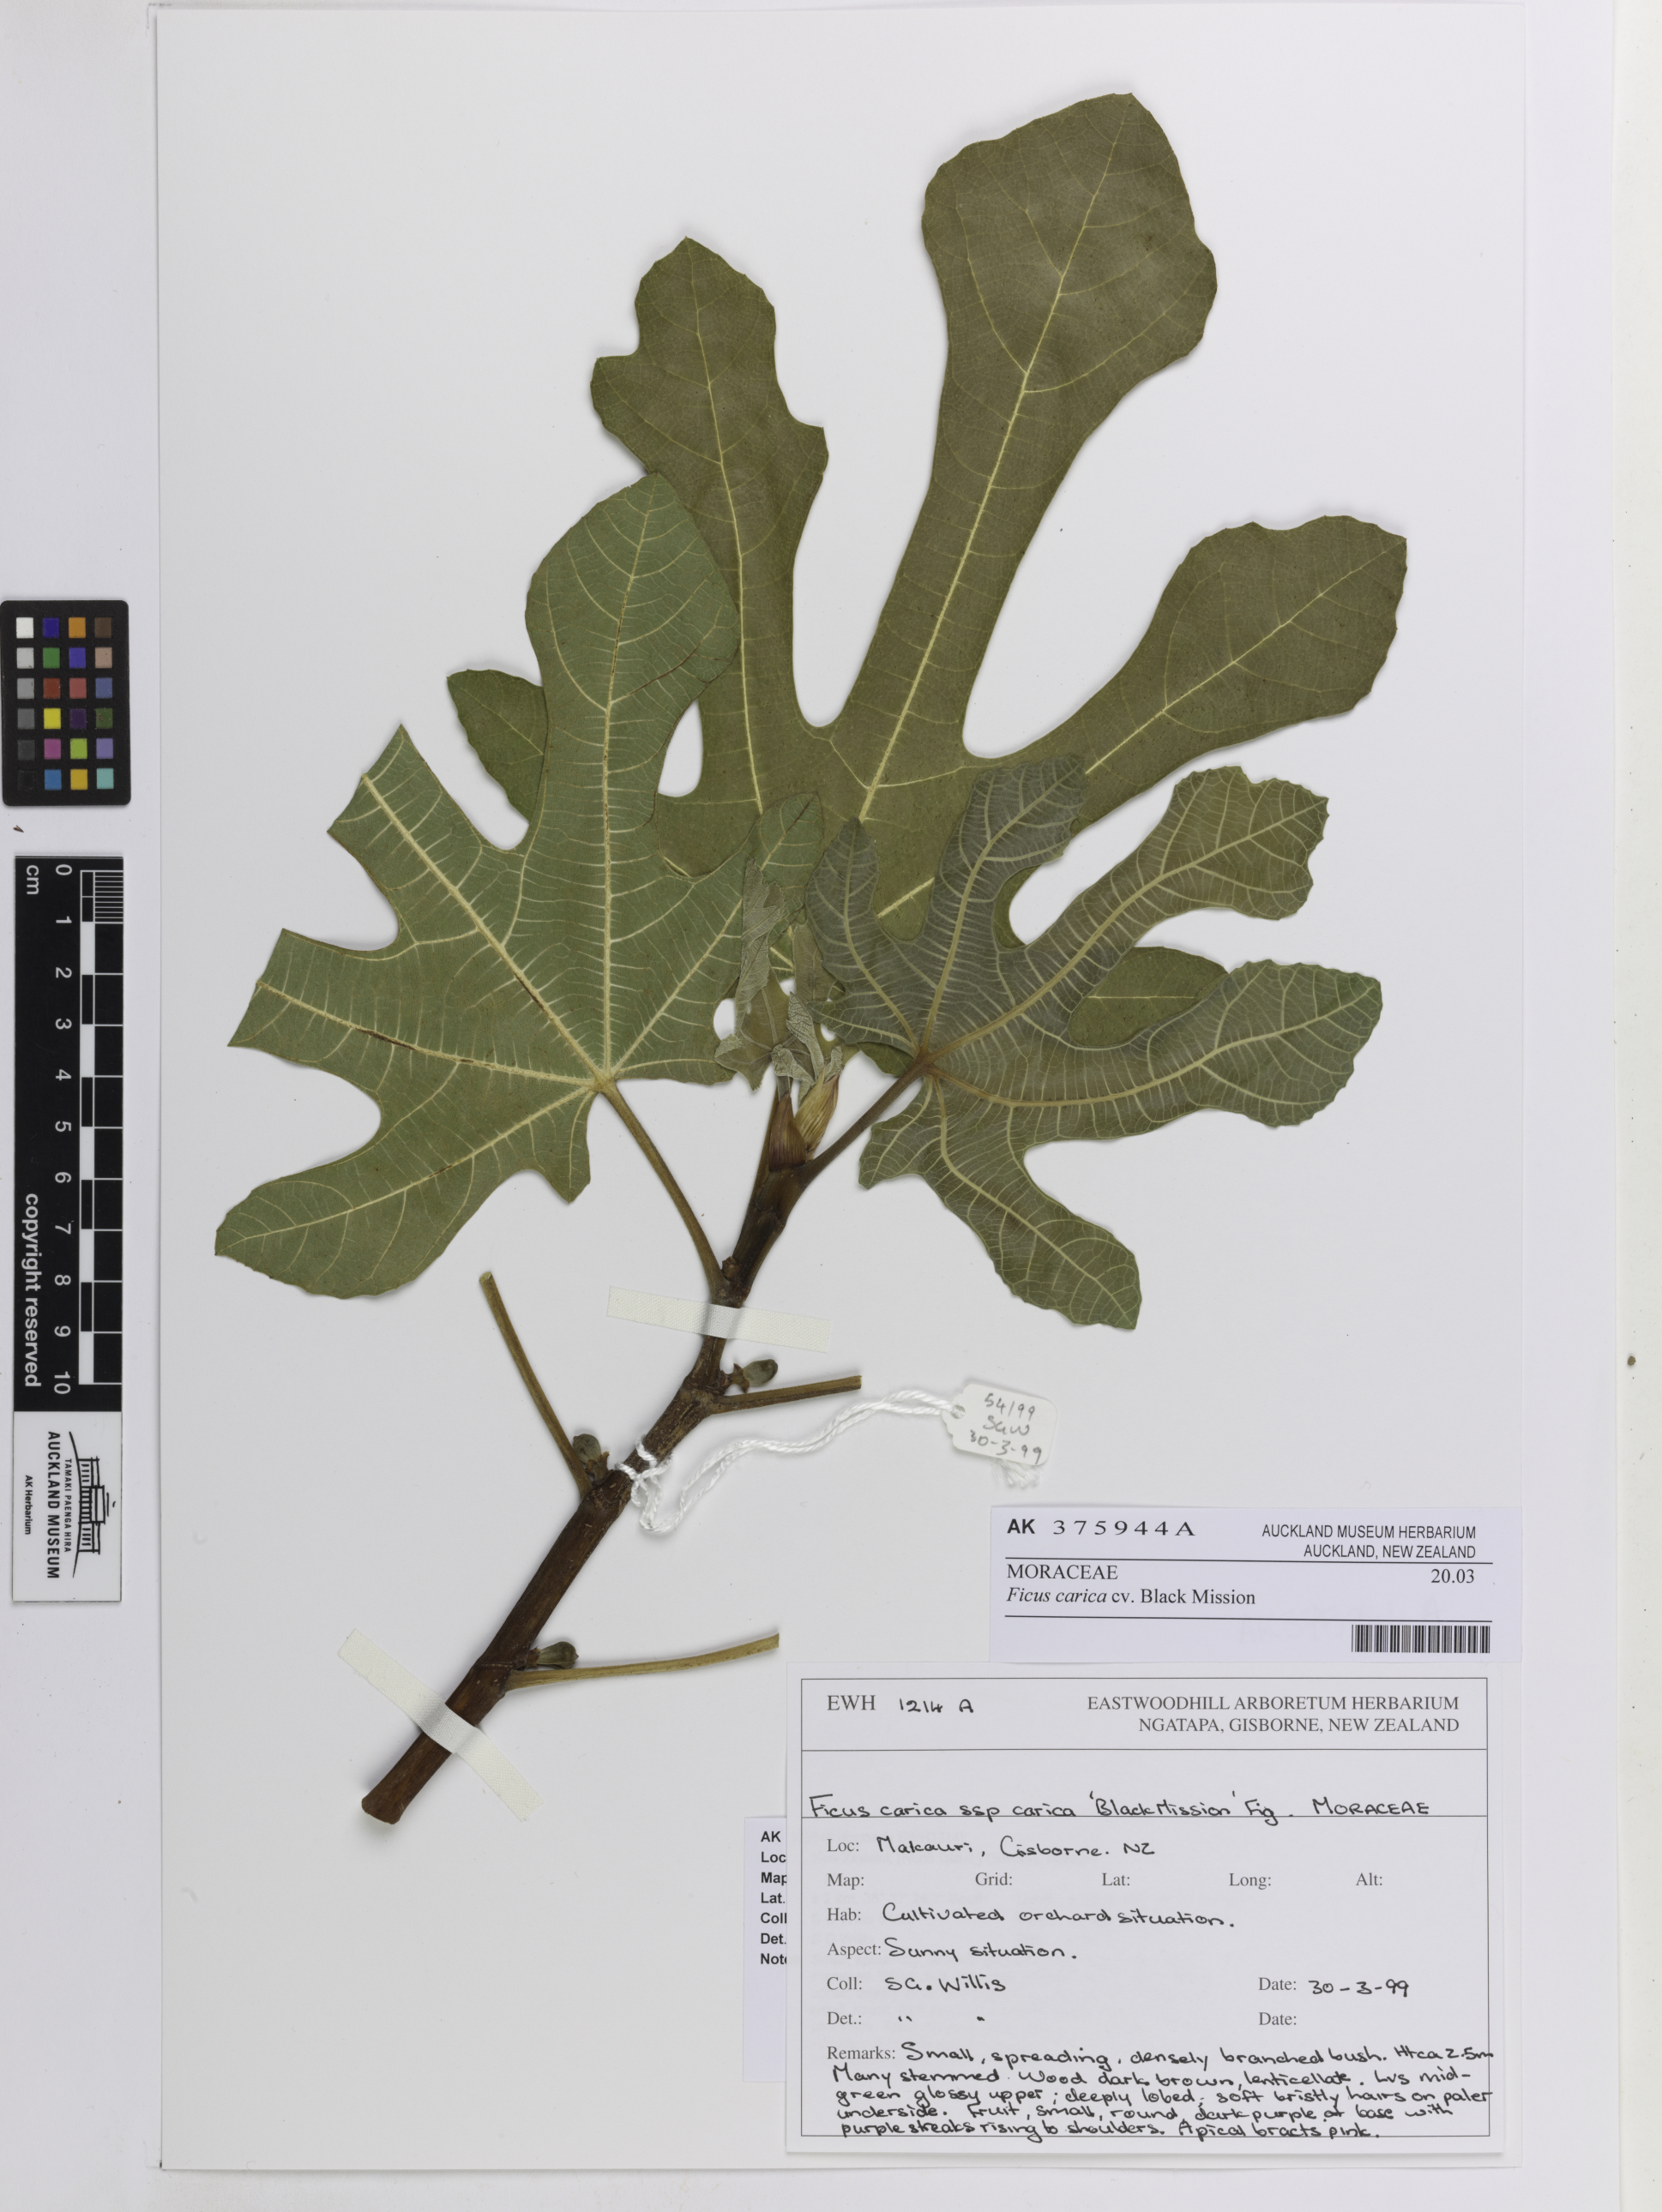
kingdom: Plantae
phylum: Tracheophyta
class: Magnoliopsida
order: Rosales
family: Moraceae
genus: Ficus
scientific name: Ficus carica
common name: Fig
